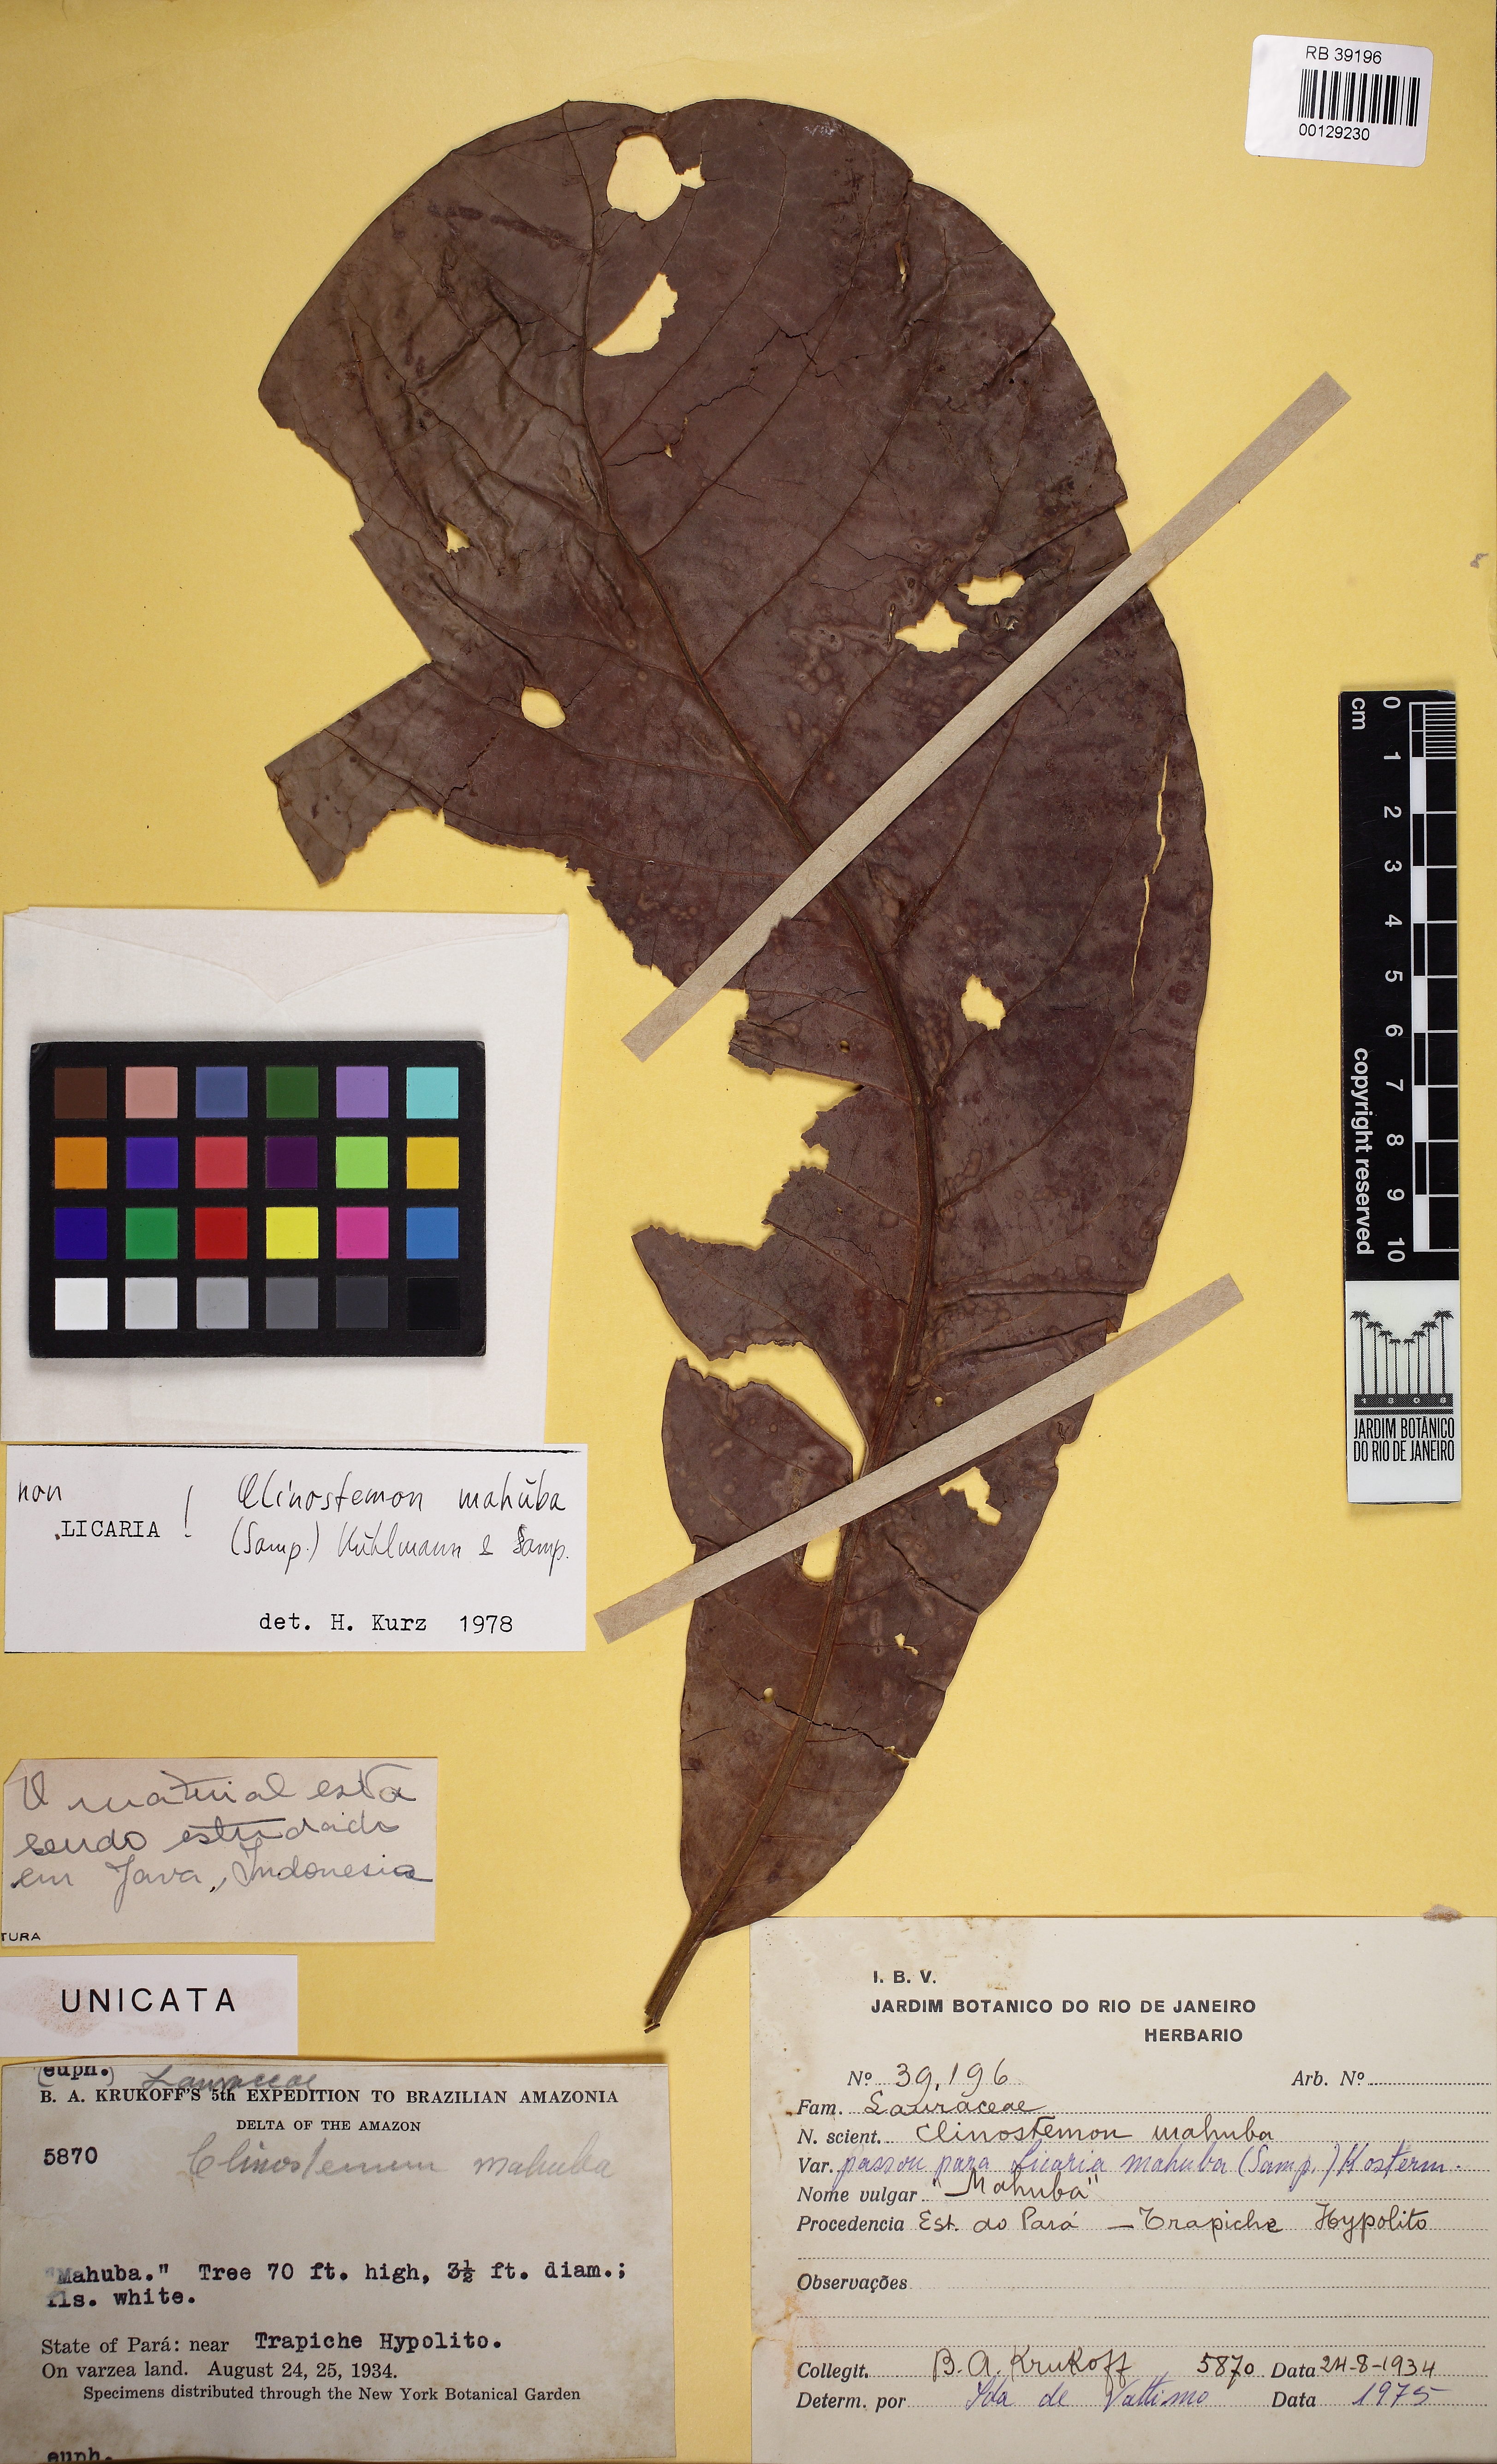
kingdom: Plantae
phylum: Tracheophyta
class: Magnoliopsida
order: Laurales
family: Lauraceae
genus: Licaria
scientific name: Licaria
